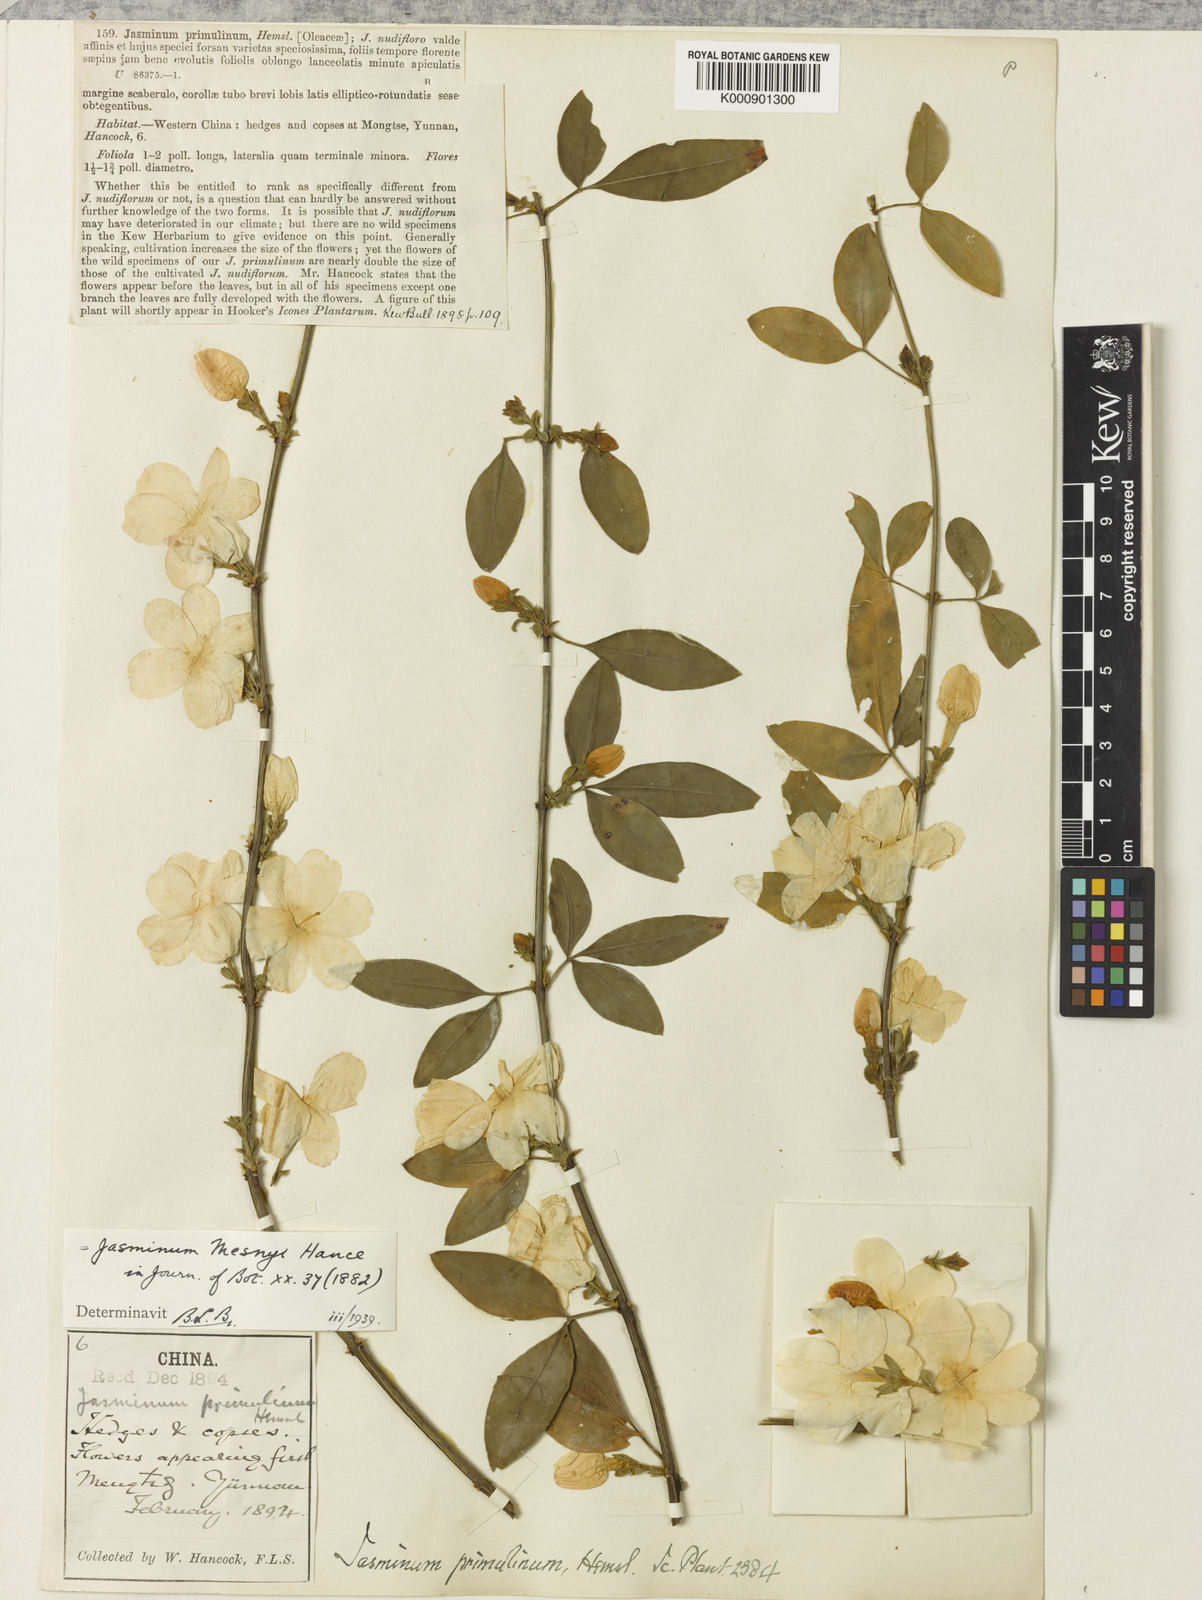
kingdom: Plantae
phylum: Tracheophyta
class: Magnoliopsida
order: Lamiales
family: Oleaceae
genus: Jasminum
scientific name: Jasminum mesnyi
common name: Japanese jasmine
